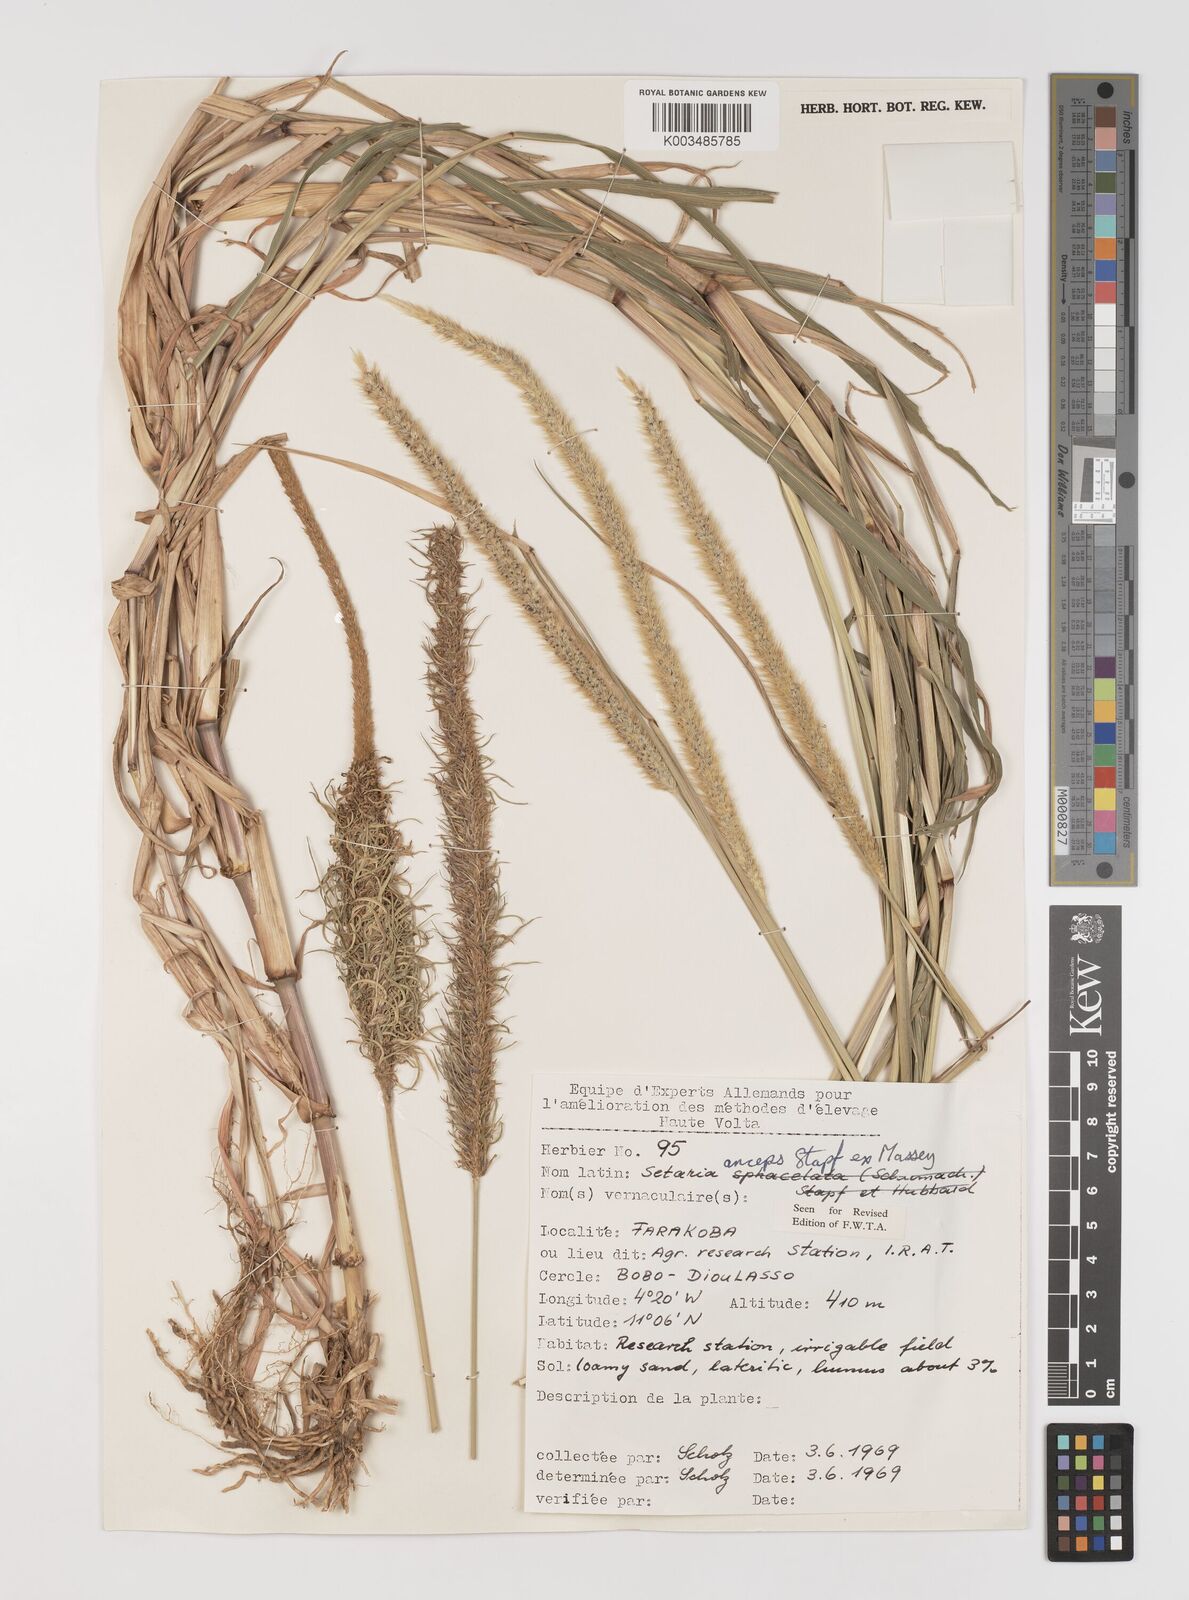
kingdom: Plantae
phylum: Tracheophyta
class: Liliopsida
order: Poales
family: Poaceae
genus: Setaria
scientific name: Setaria sphacelata
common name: African bristlegrass
